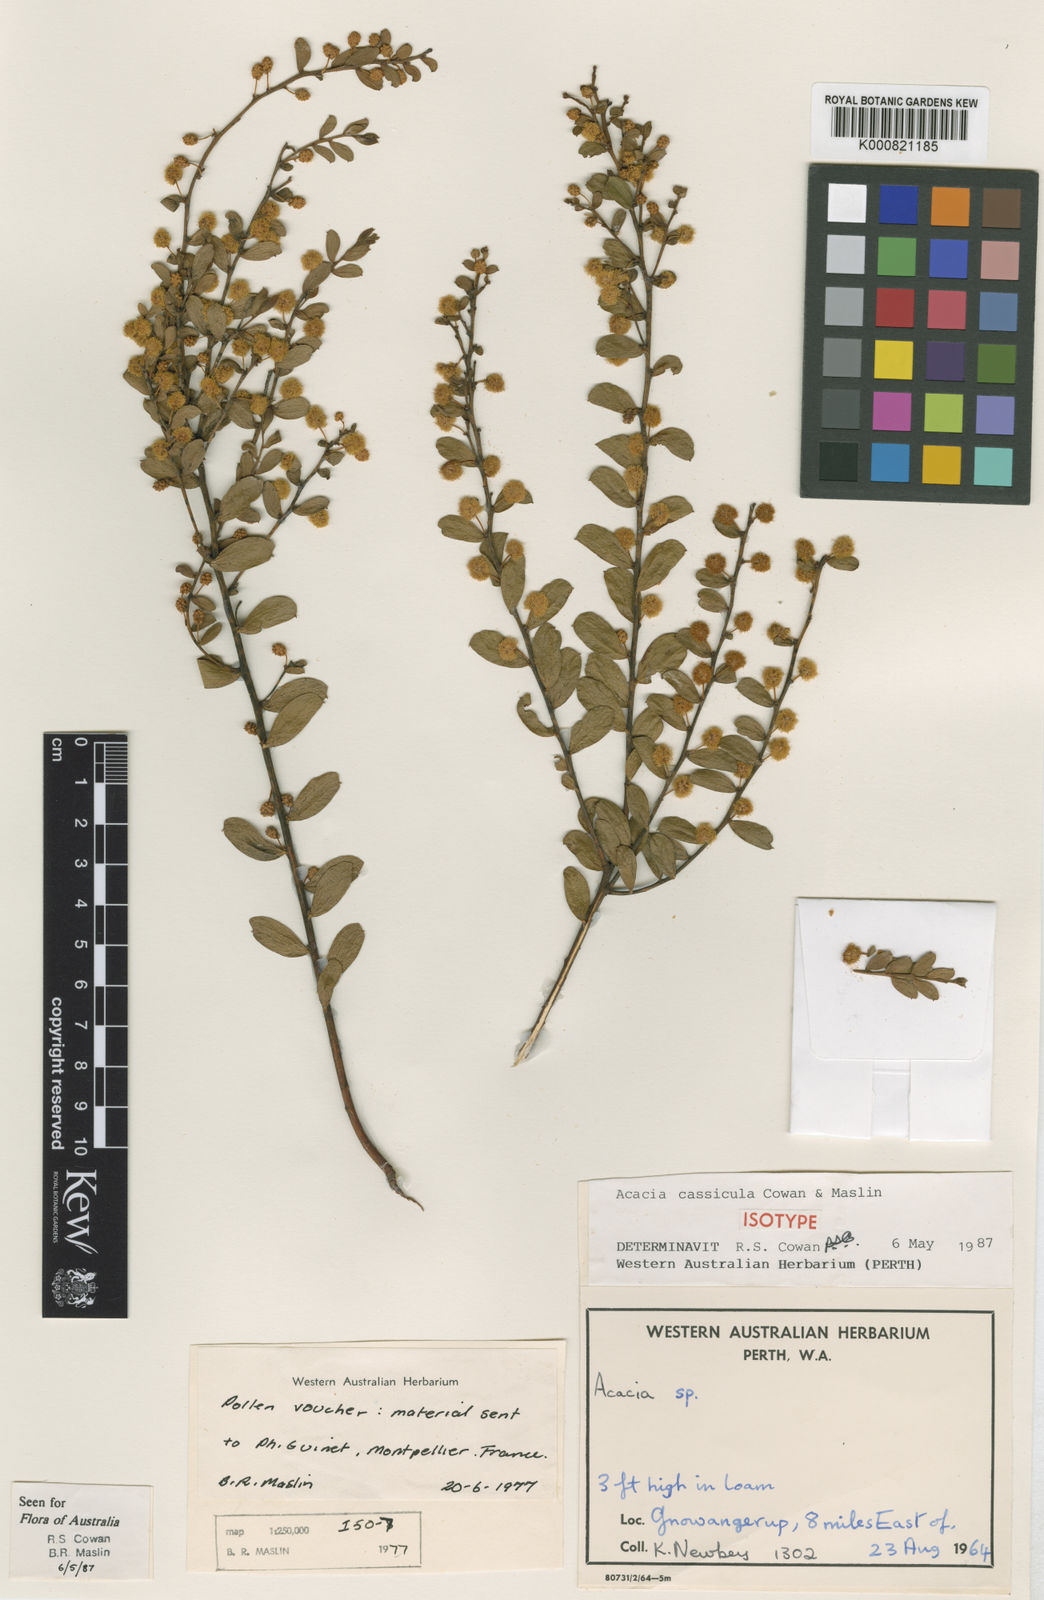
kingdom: Plantae
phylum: Tracheophyta
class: Magnoliopsida
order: Fabales
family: Fabaceae
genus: Acacia
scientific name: Acacia cassicula
